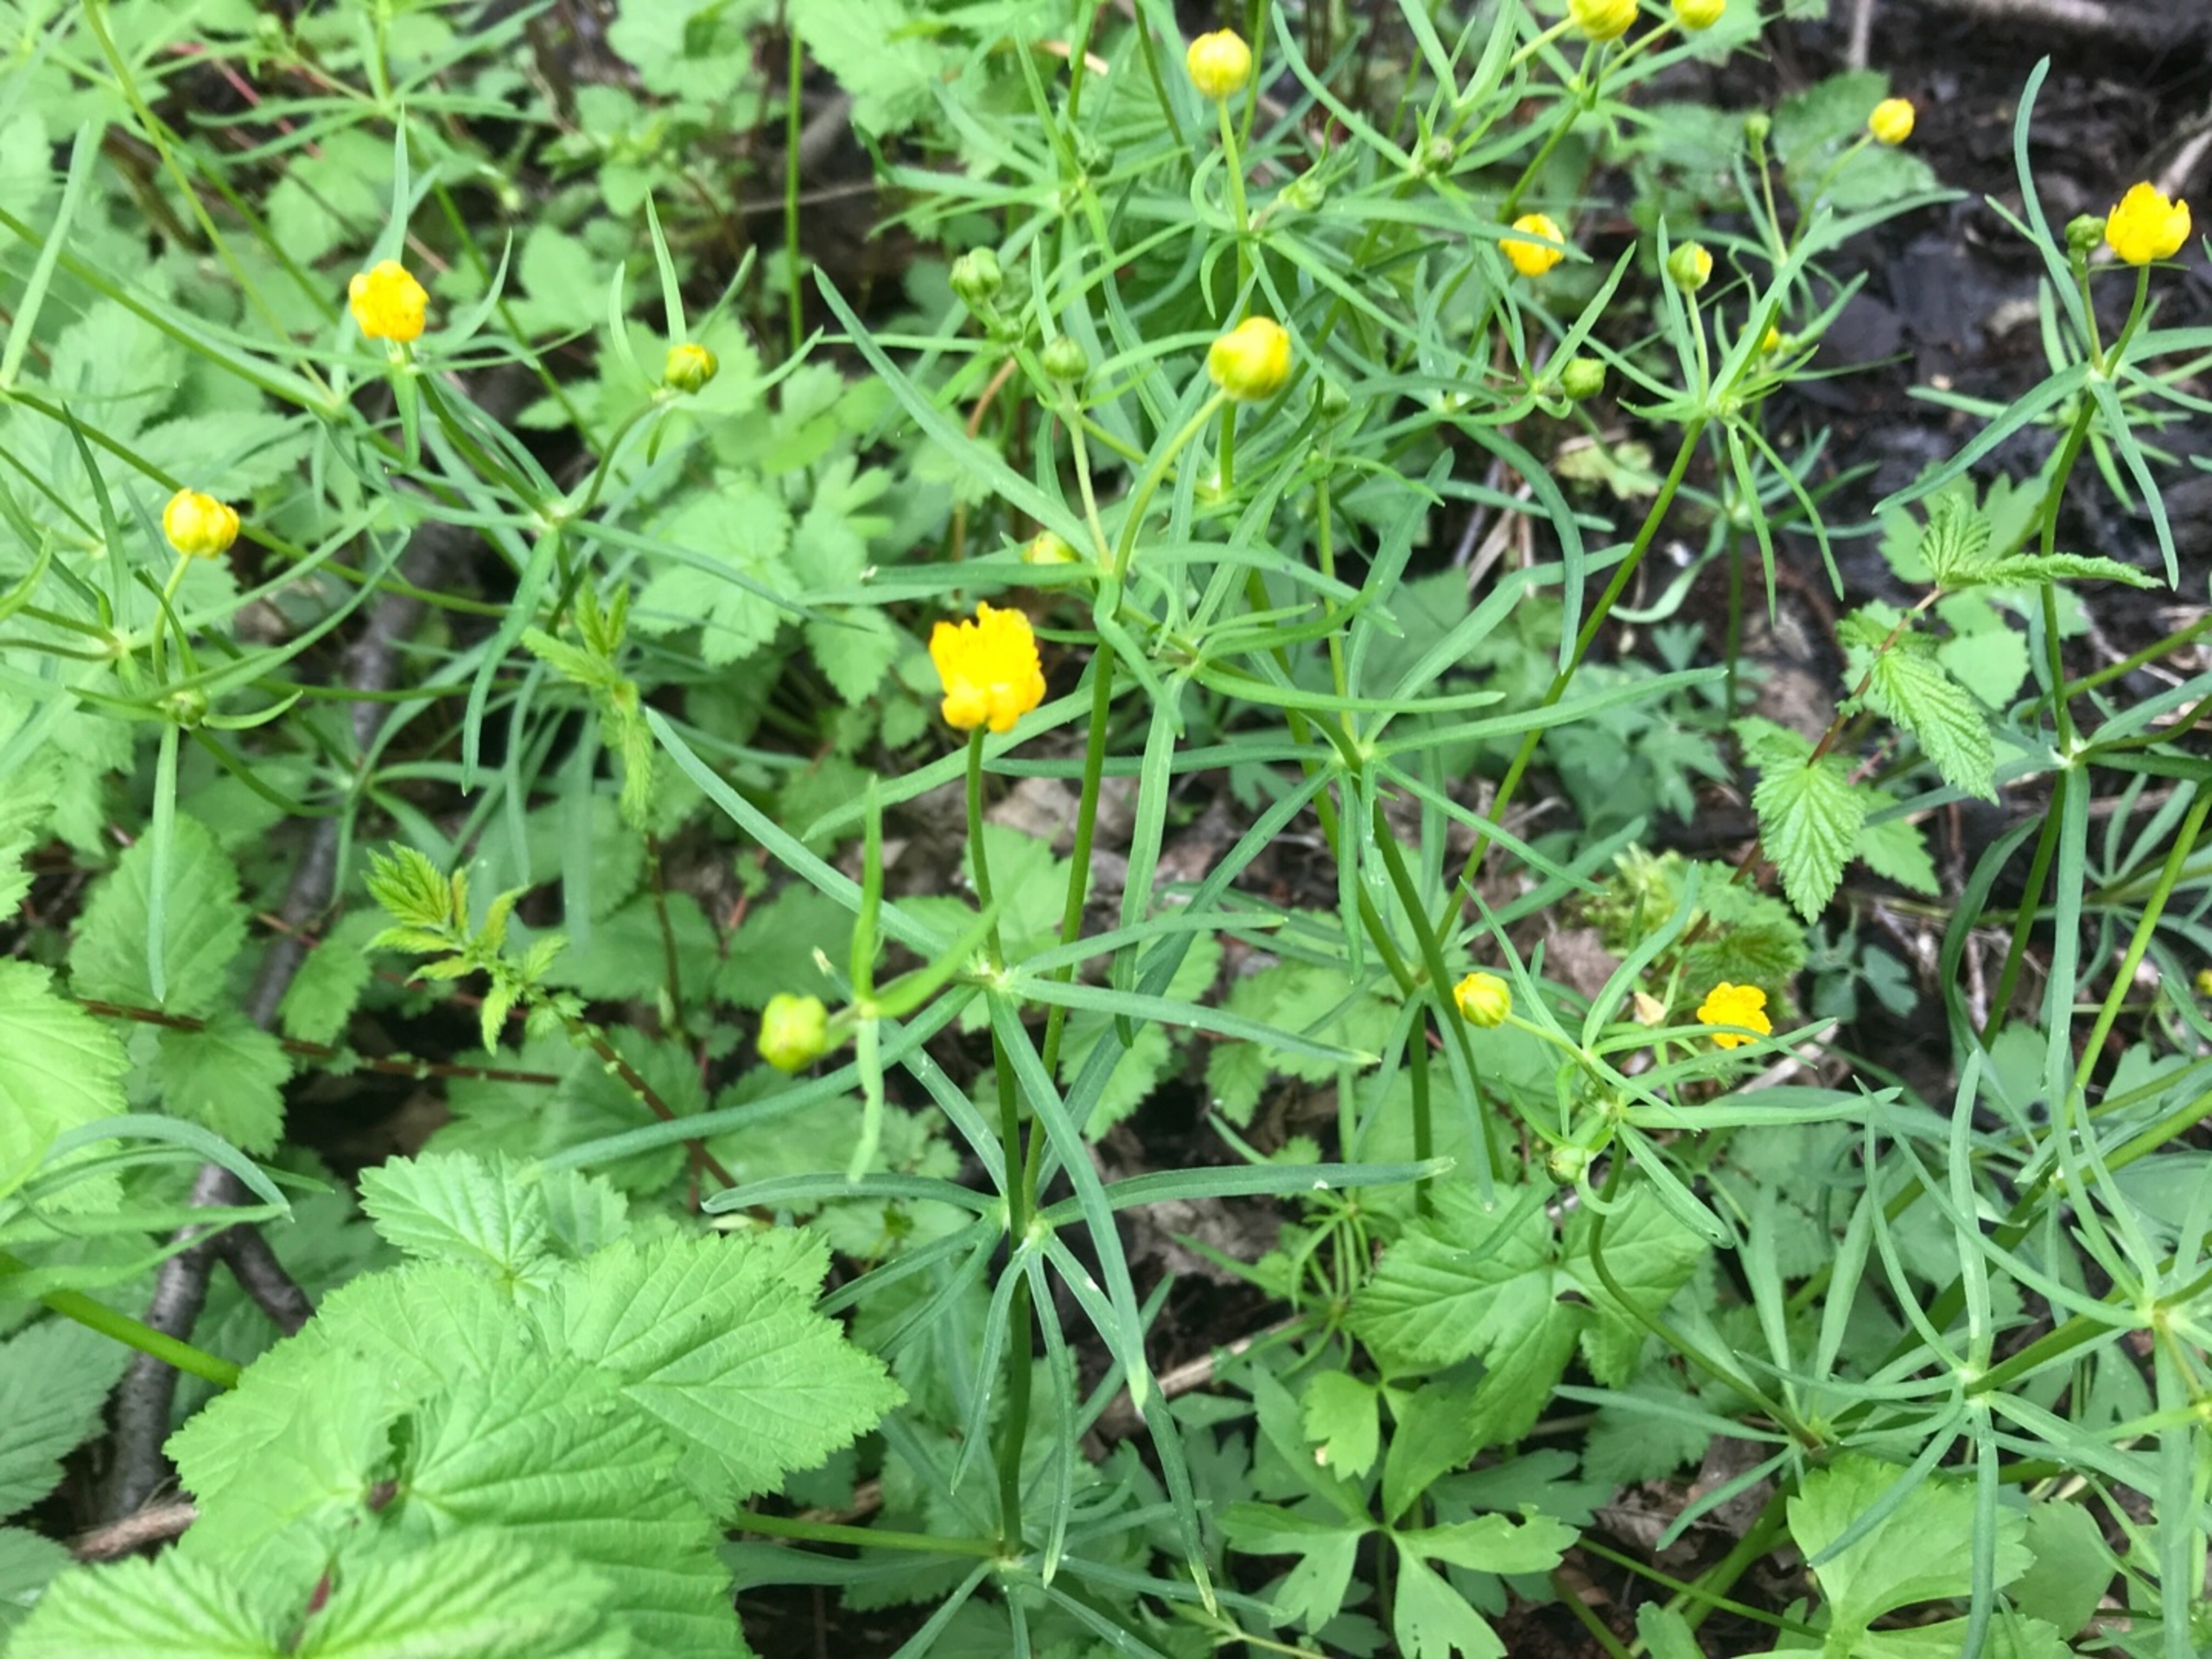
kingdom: Plantae
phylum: Tracheophyta
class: Magnoliopsida
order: Ranunculales
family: Ranunculaceae
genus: Ranunculus
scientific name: Ranunculus auricomus
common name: Nyrebladet ranunkel
